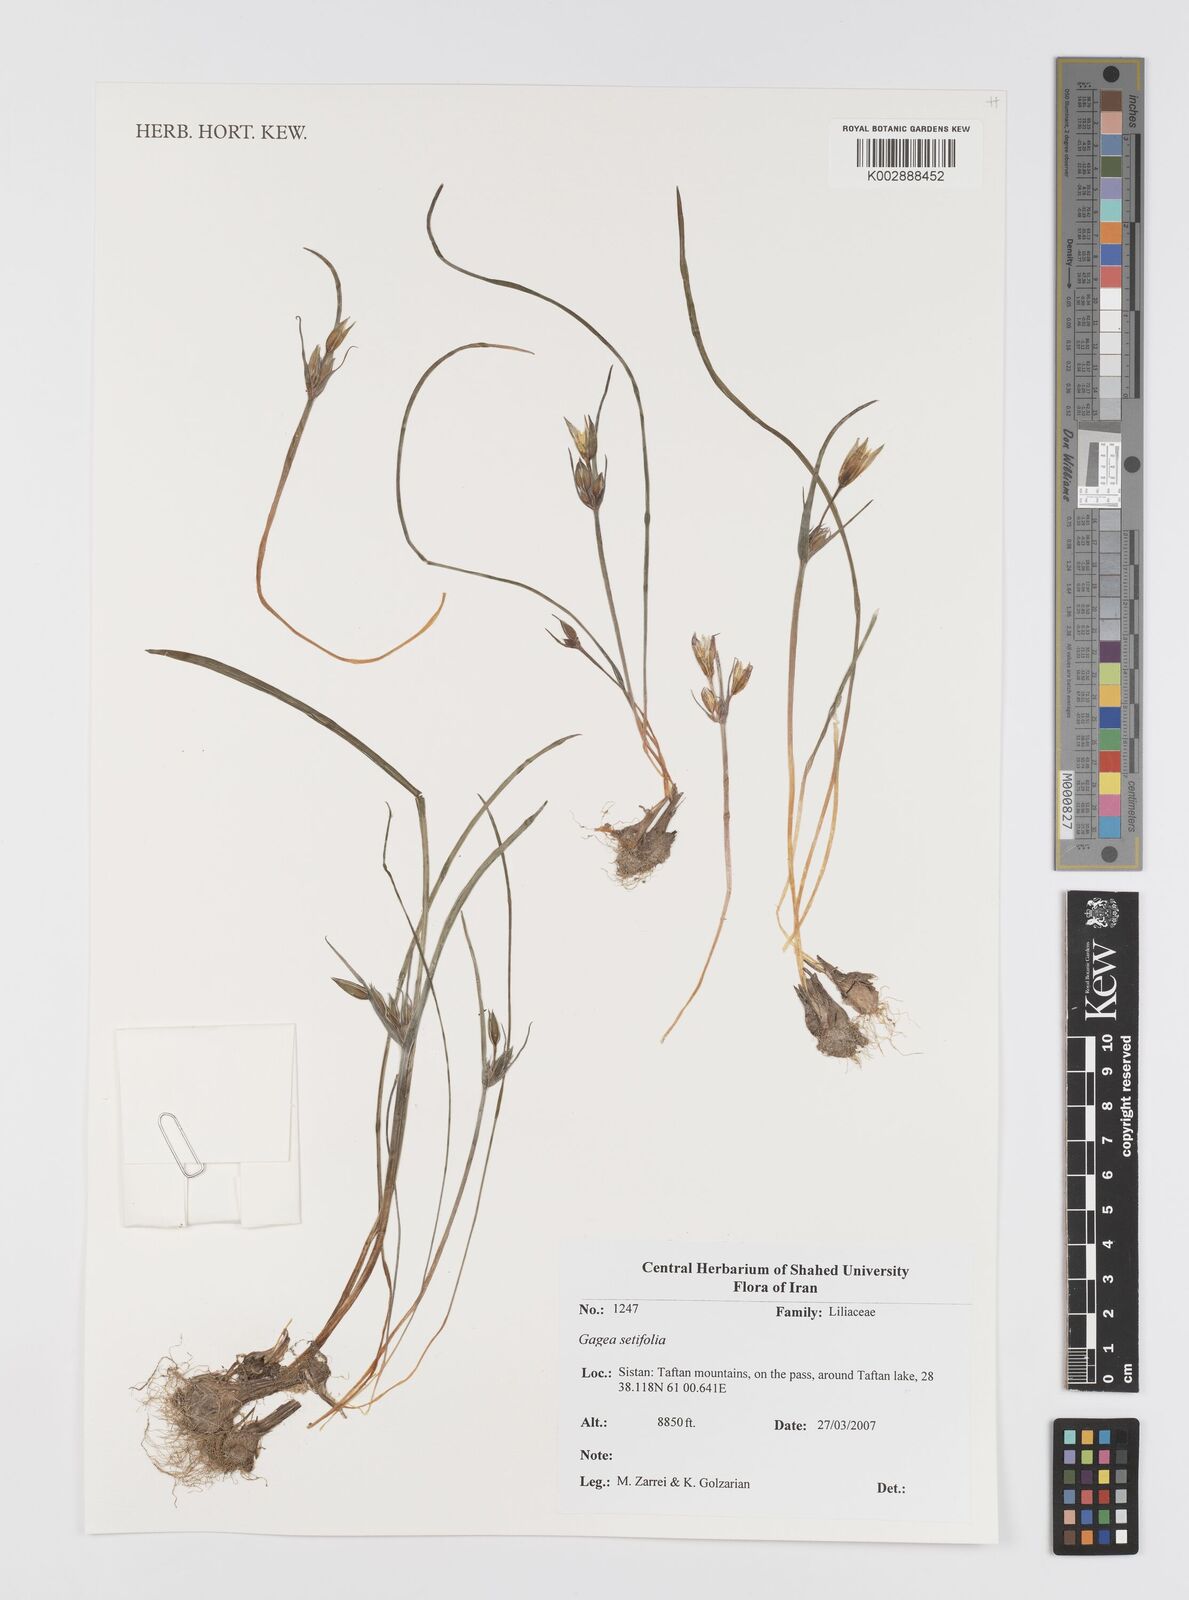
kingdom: Plantae
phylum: Tracheophyta
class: Liliopsida
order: Liliales
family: Liliaceae
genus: Gagea
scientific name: Gagea setifolia
